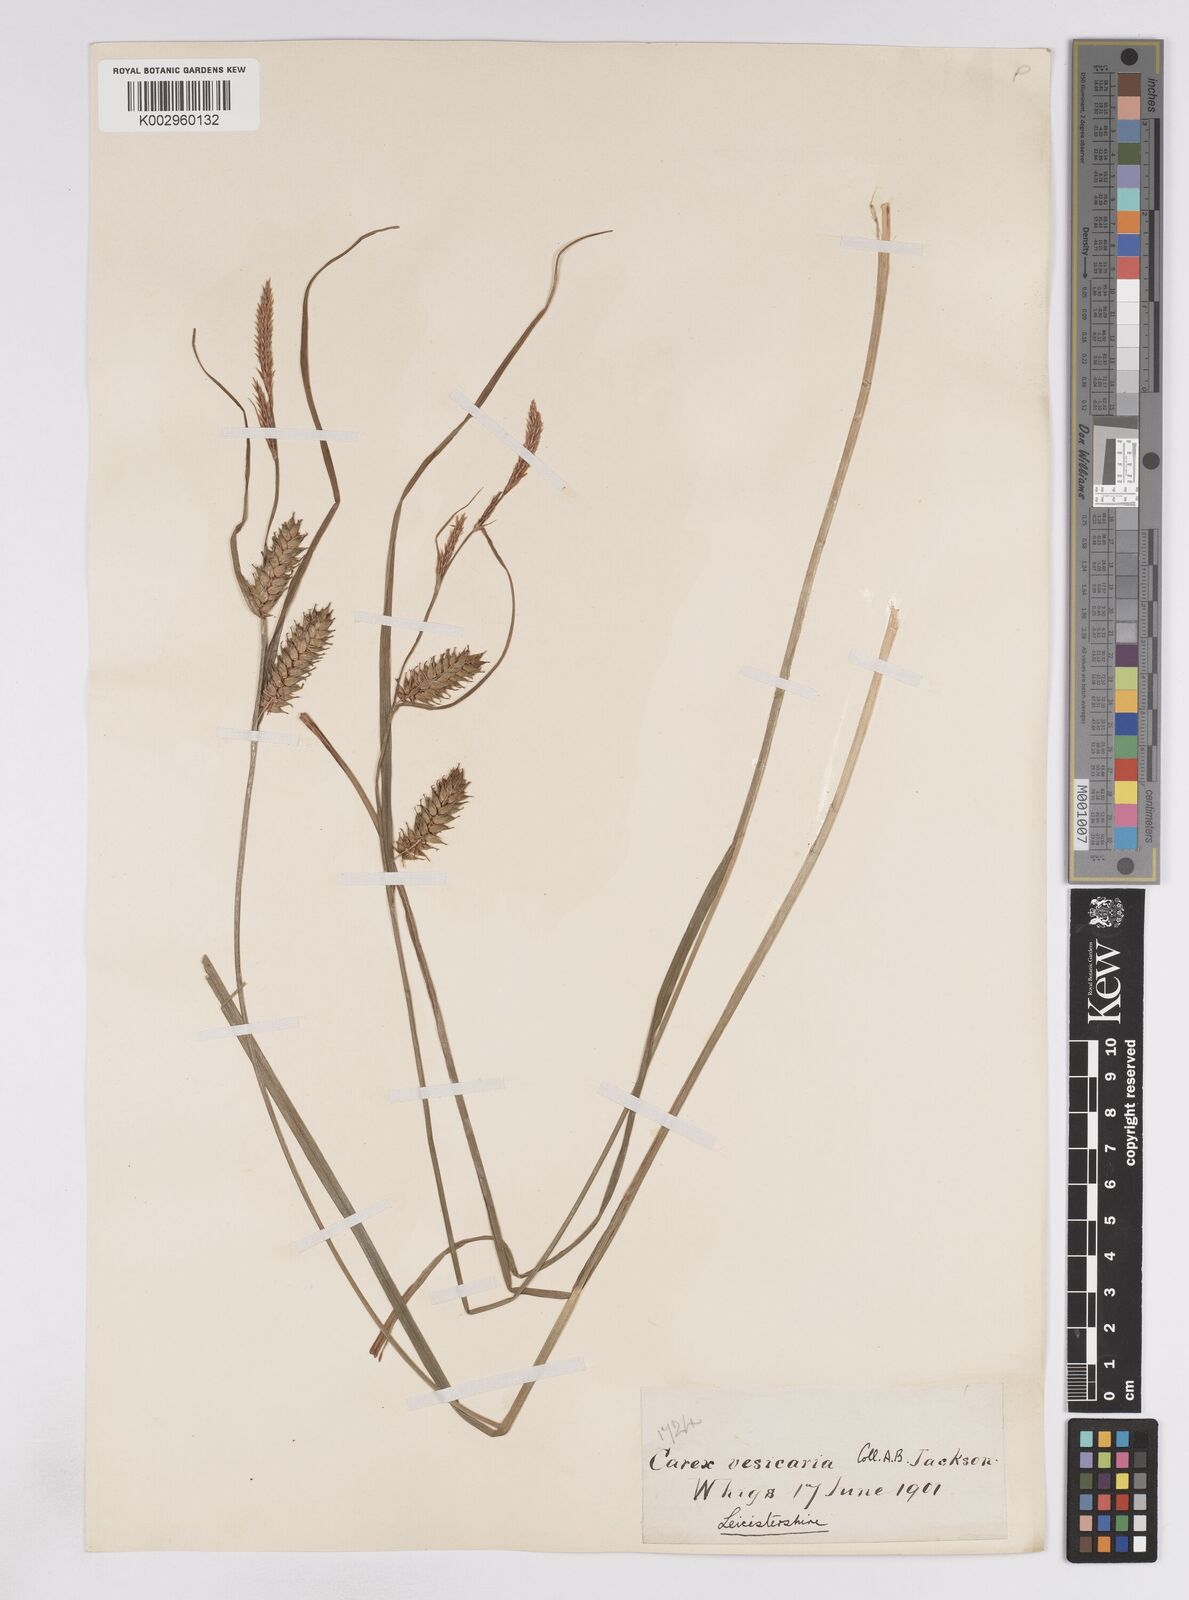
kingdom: Plantae
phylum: Tracheophyta
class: Liliopsida
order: Poales
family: Cyperaceae
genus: Carex
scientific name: Carex vesicaria
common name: Bladder-sedge
